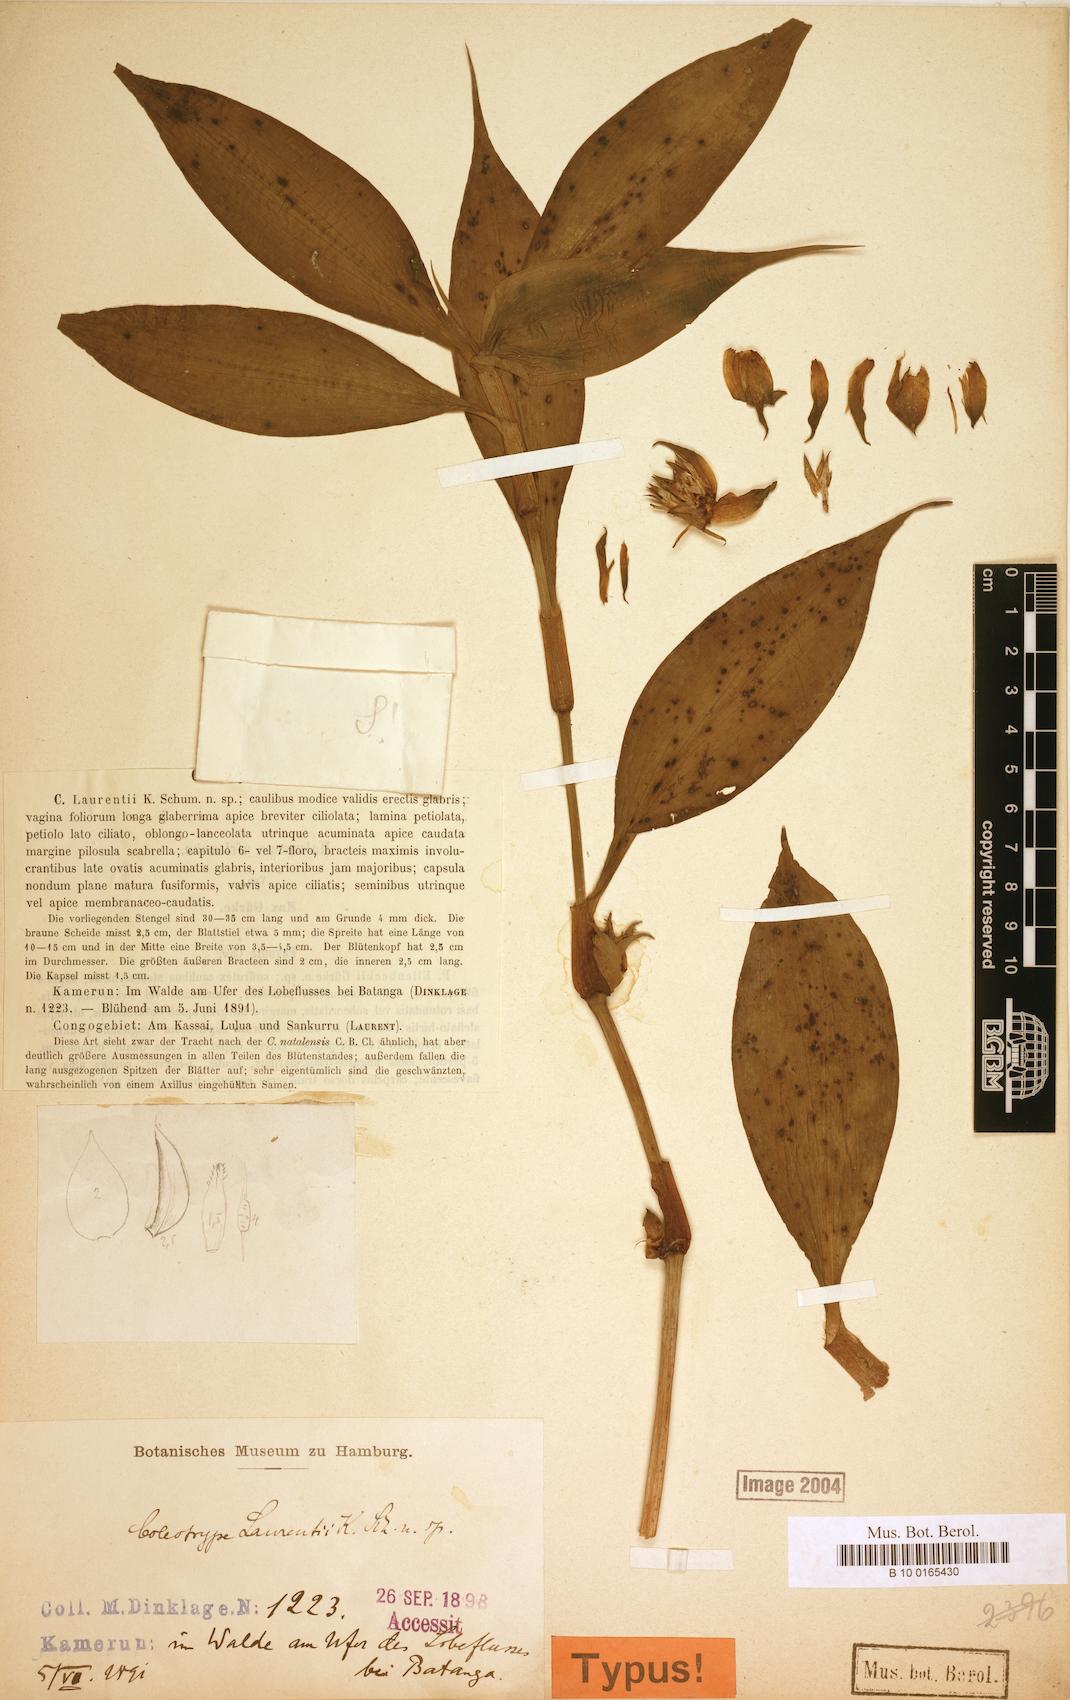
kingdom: Plantae
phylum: Tracheophyta
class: Liliopsida
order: Commelinales
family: Commelinaceae
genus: Coleotrype
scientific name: Coleotrype laurentii
